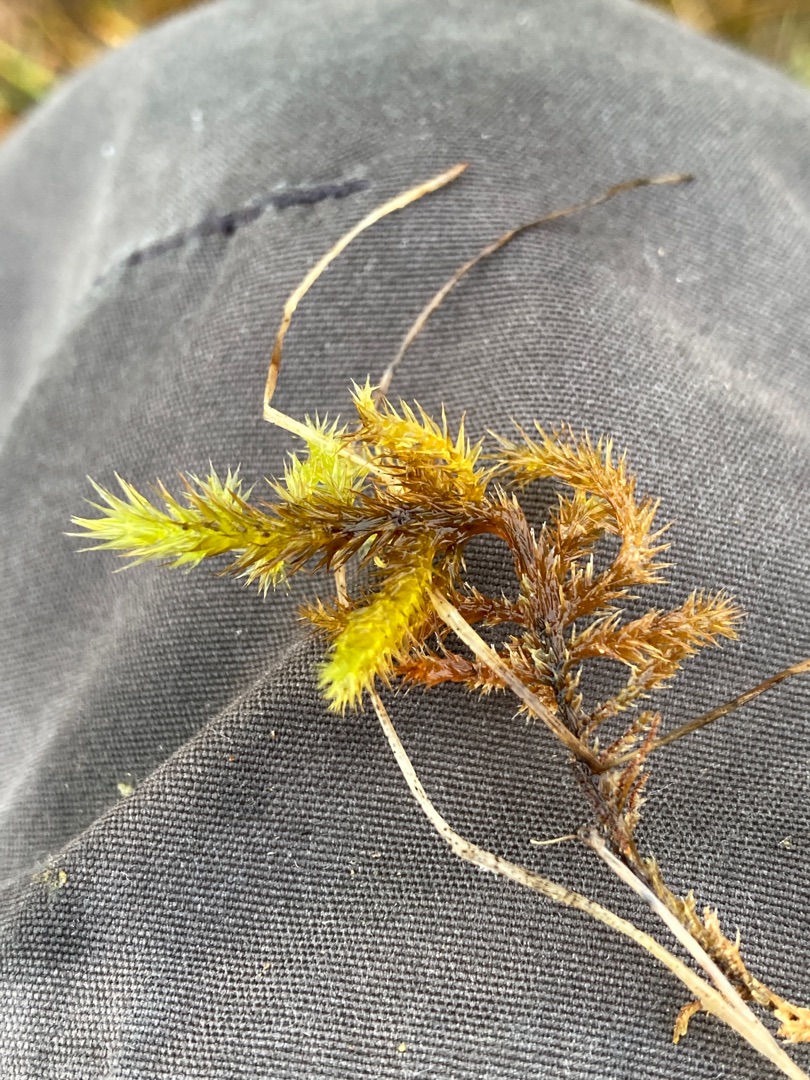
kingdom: Plantae
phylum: Bryophyta
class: Bryopsida
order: Hypnales
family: Amblystegiaceae
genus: Tomentypnum
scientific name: Tomentypnum nitens
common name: Glinsende kærmos
